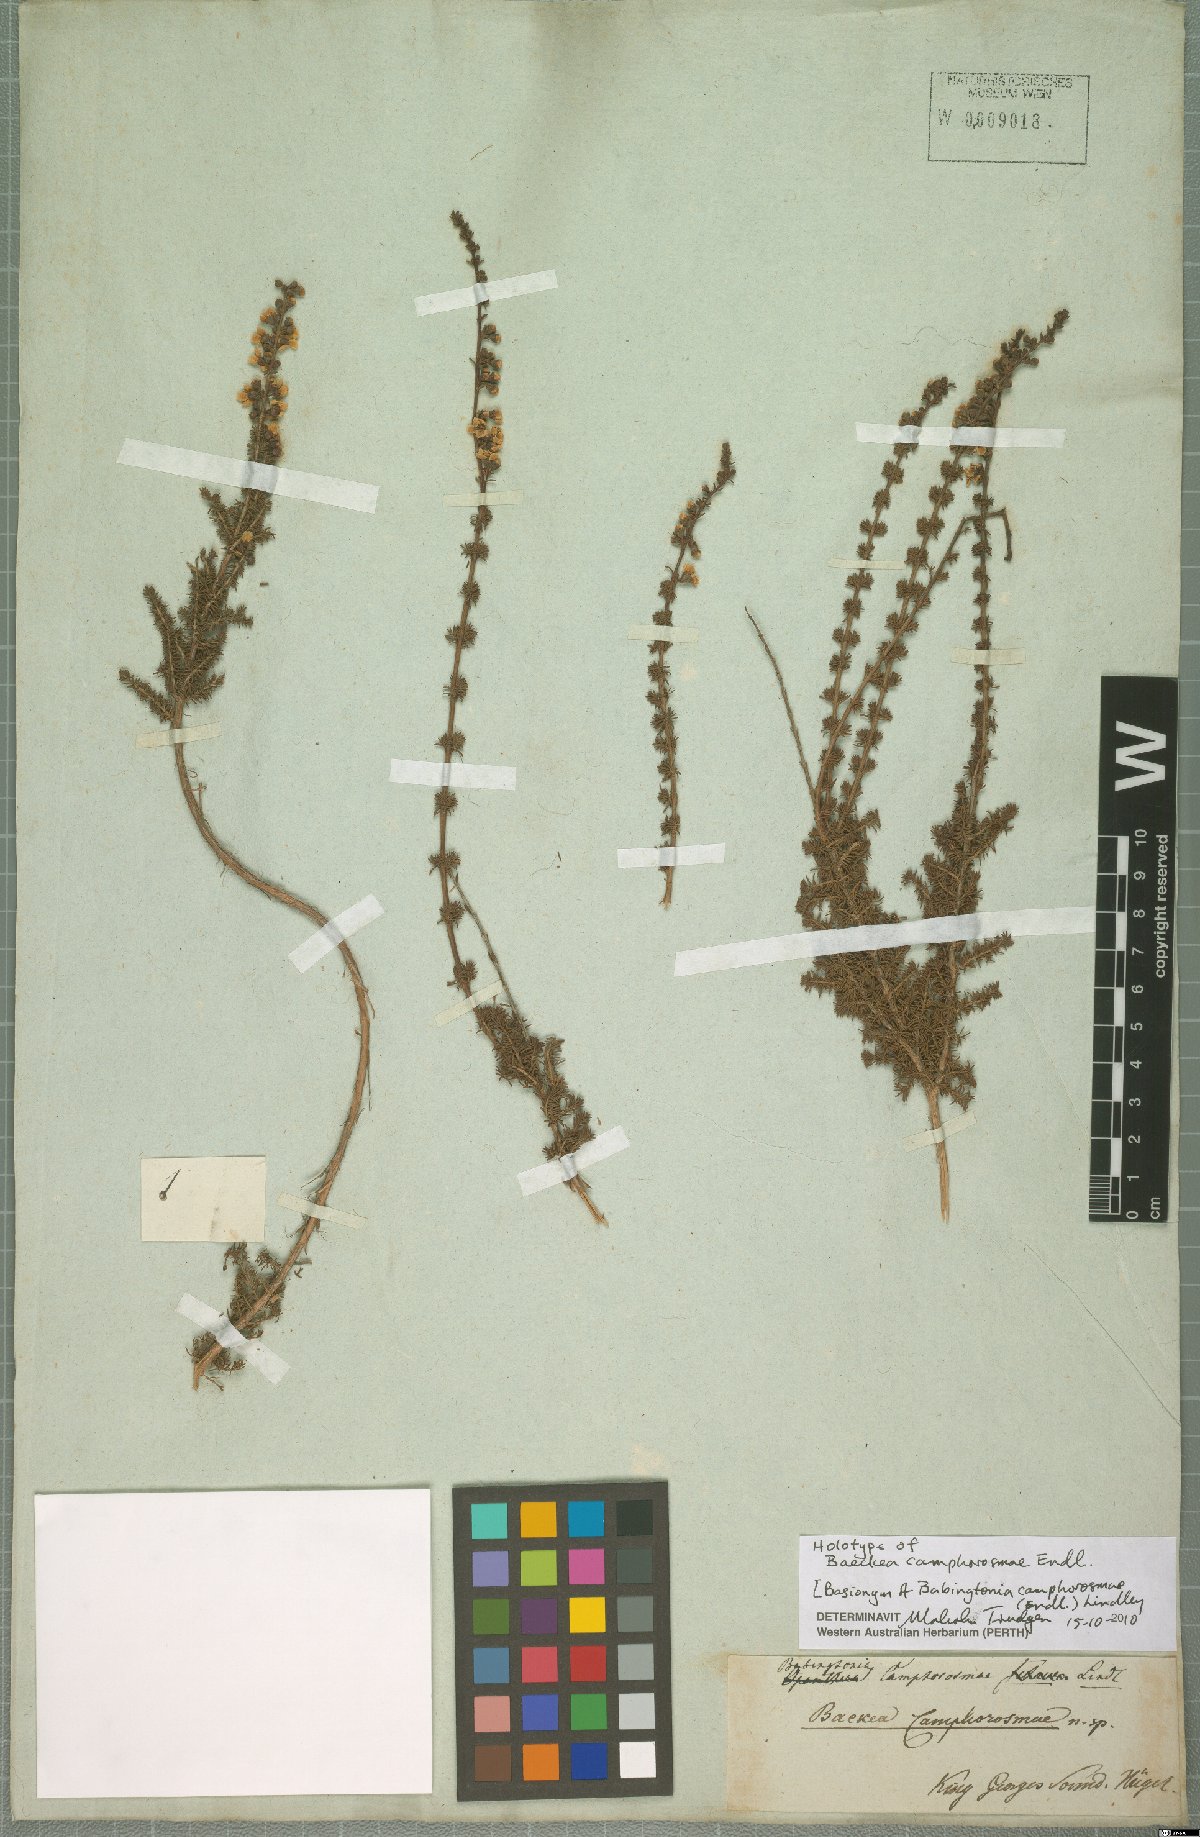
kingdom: Plantae
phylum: Tracheophyta
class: Magnoliopsida
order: Myrtales
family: Myrtaceae
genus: Babingtonia
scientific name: Babingtonia camphorosmae
